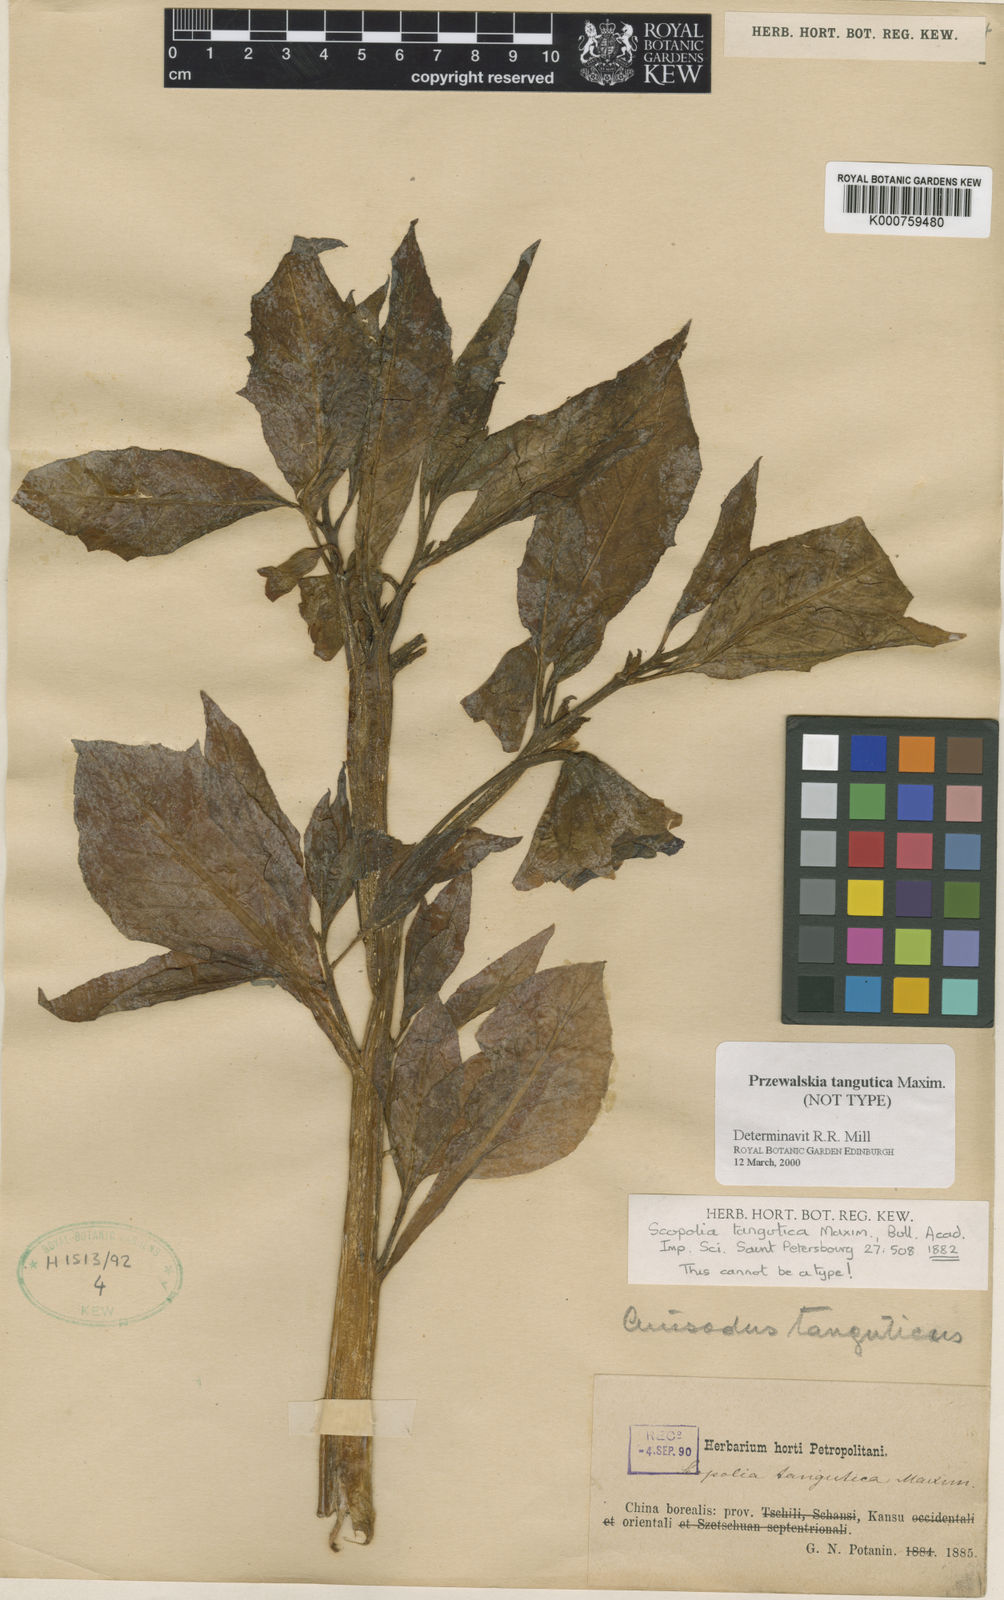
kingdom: Plantae
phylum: Tracheophyta
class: Magnoliopsida
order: Solanales
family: Solanaceae
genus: Przewalskia
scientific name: Przewalskia tangutica
